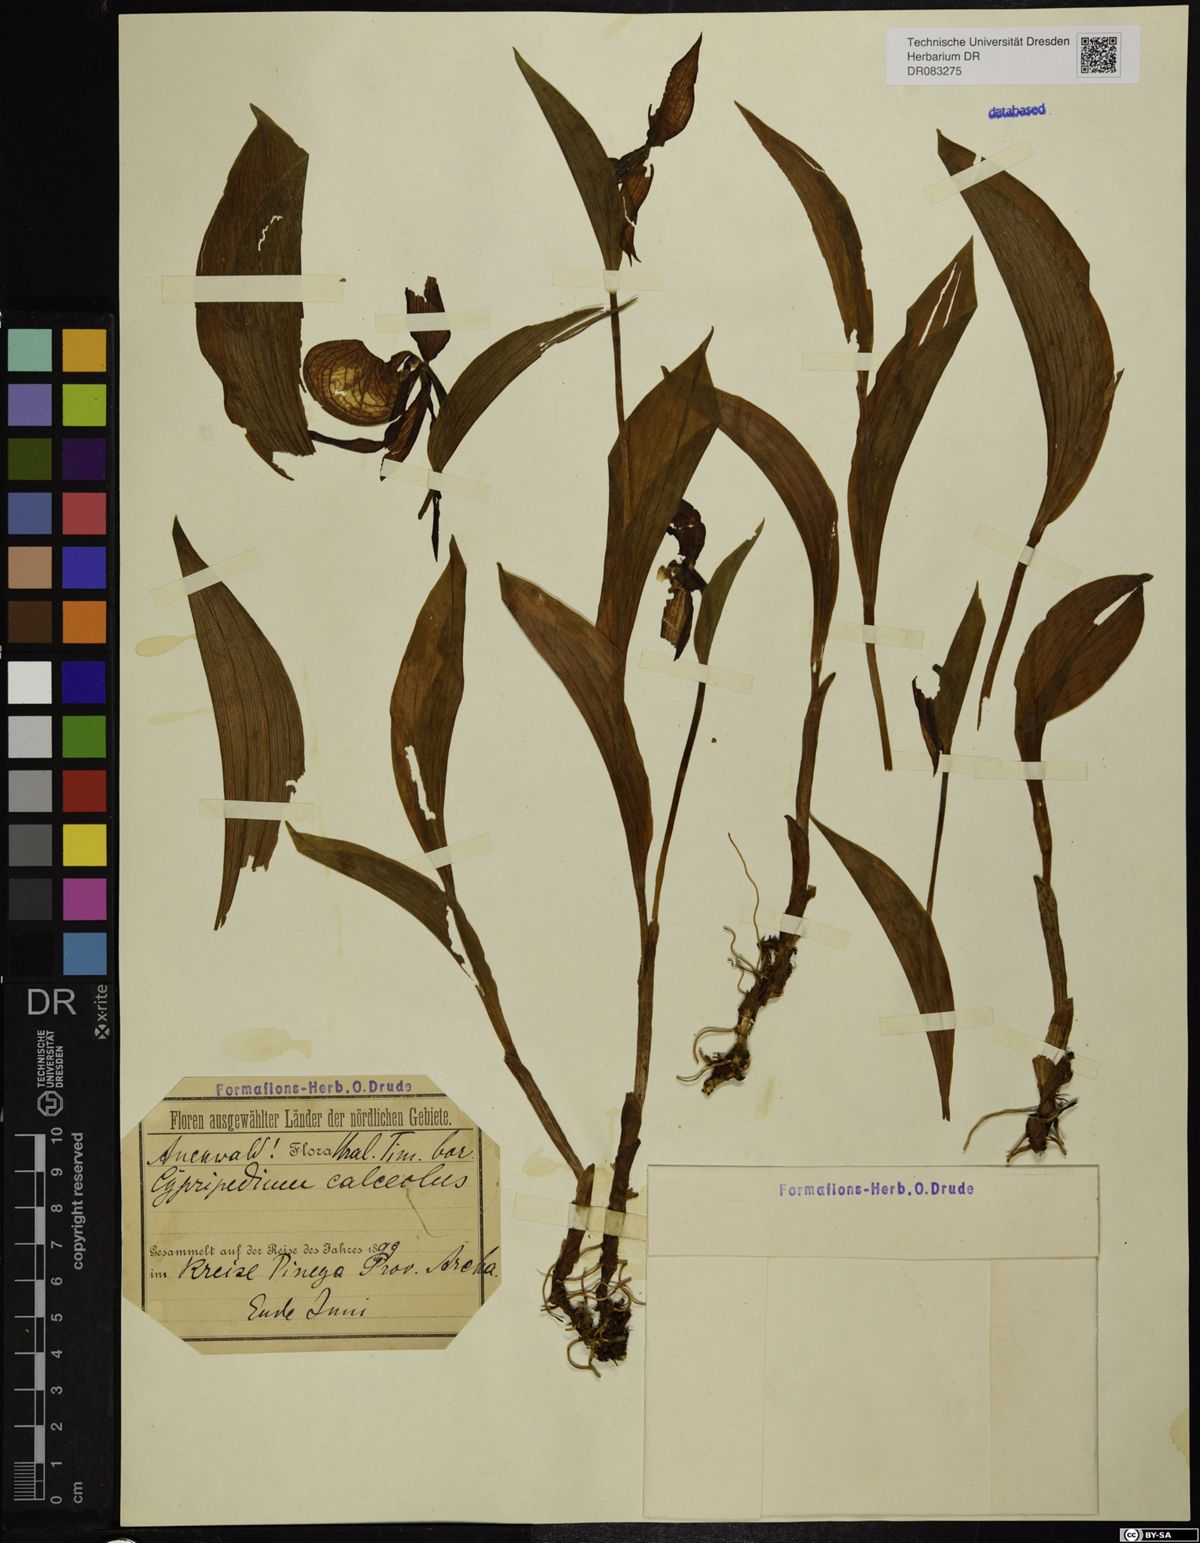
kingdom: Plantae
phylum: Tracheophyta
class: Liliopsida
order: Asparagales
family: Orchidaceae
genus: Cypripedium
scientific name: Cypripedium calceolus
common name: Lady's-slipper
